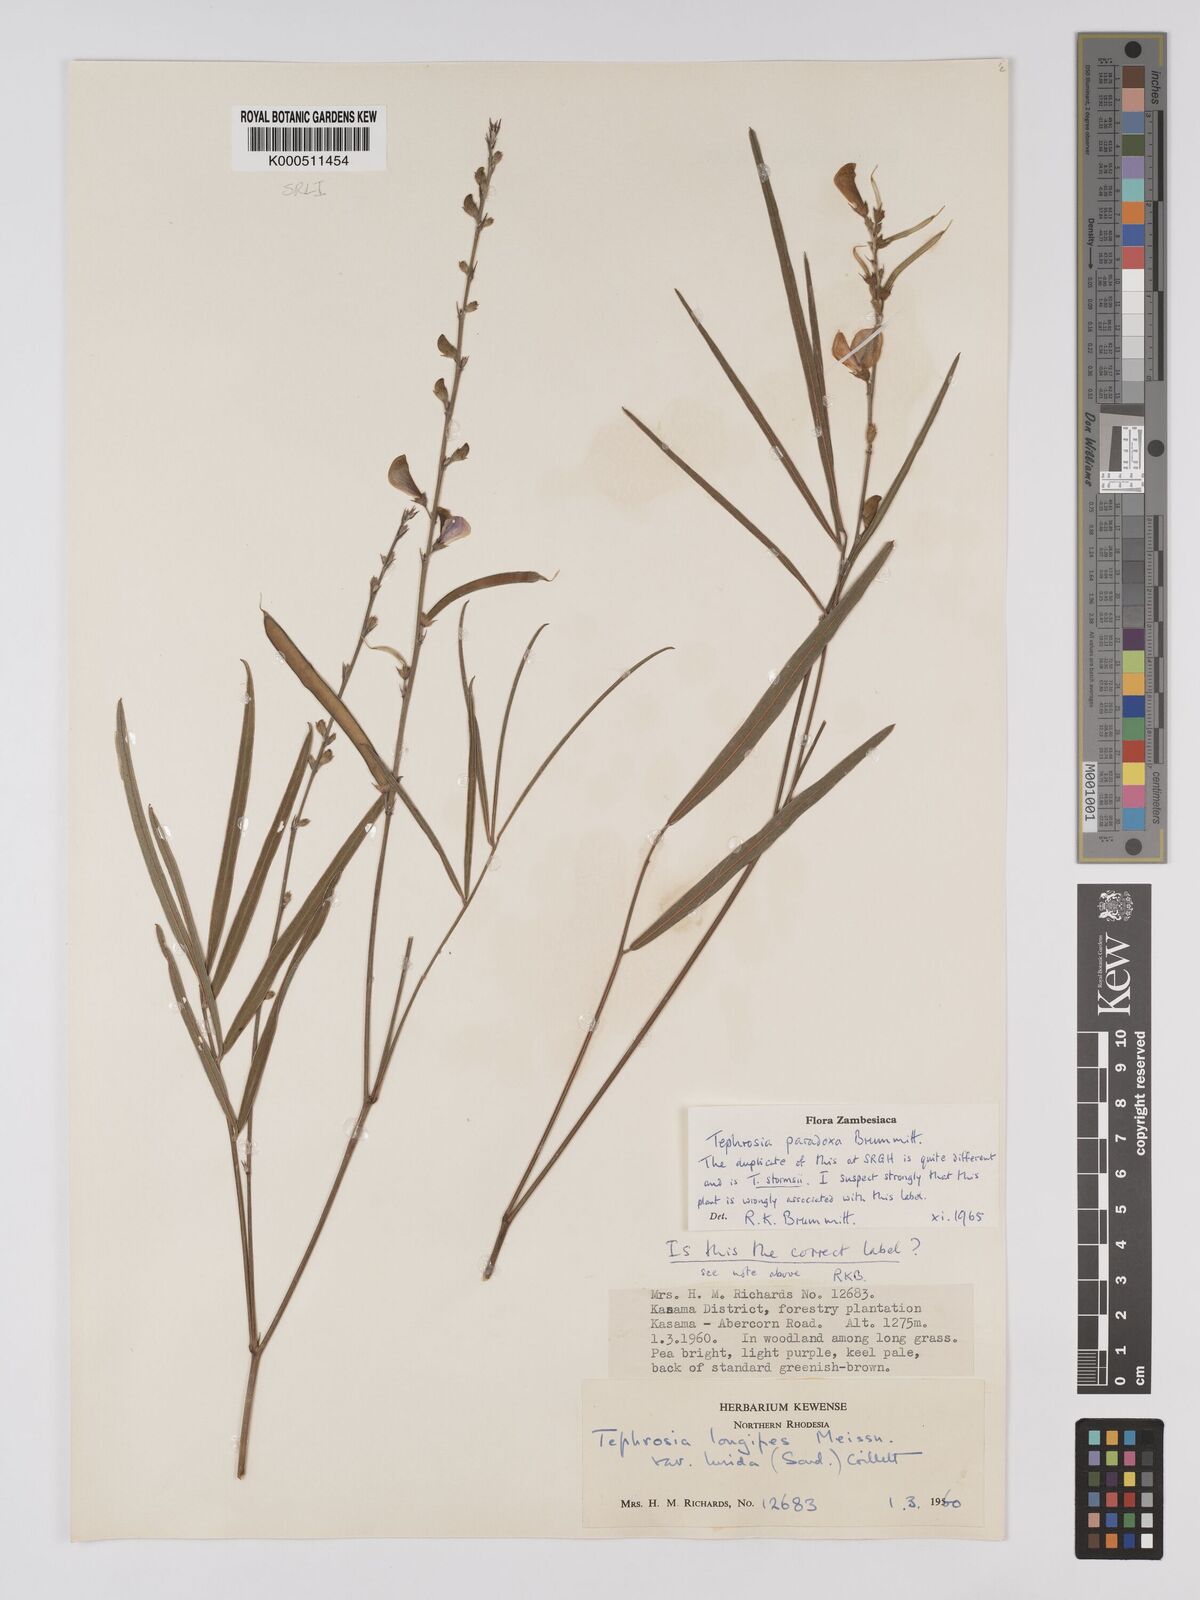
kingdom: Plantae
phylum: Tracheophyta
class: Magnoliopsida
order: Fabales
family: Fabaceae
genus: Tephrosia
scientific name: Tephrosia paradoxa
